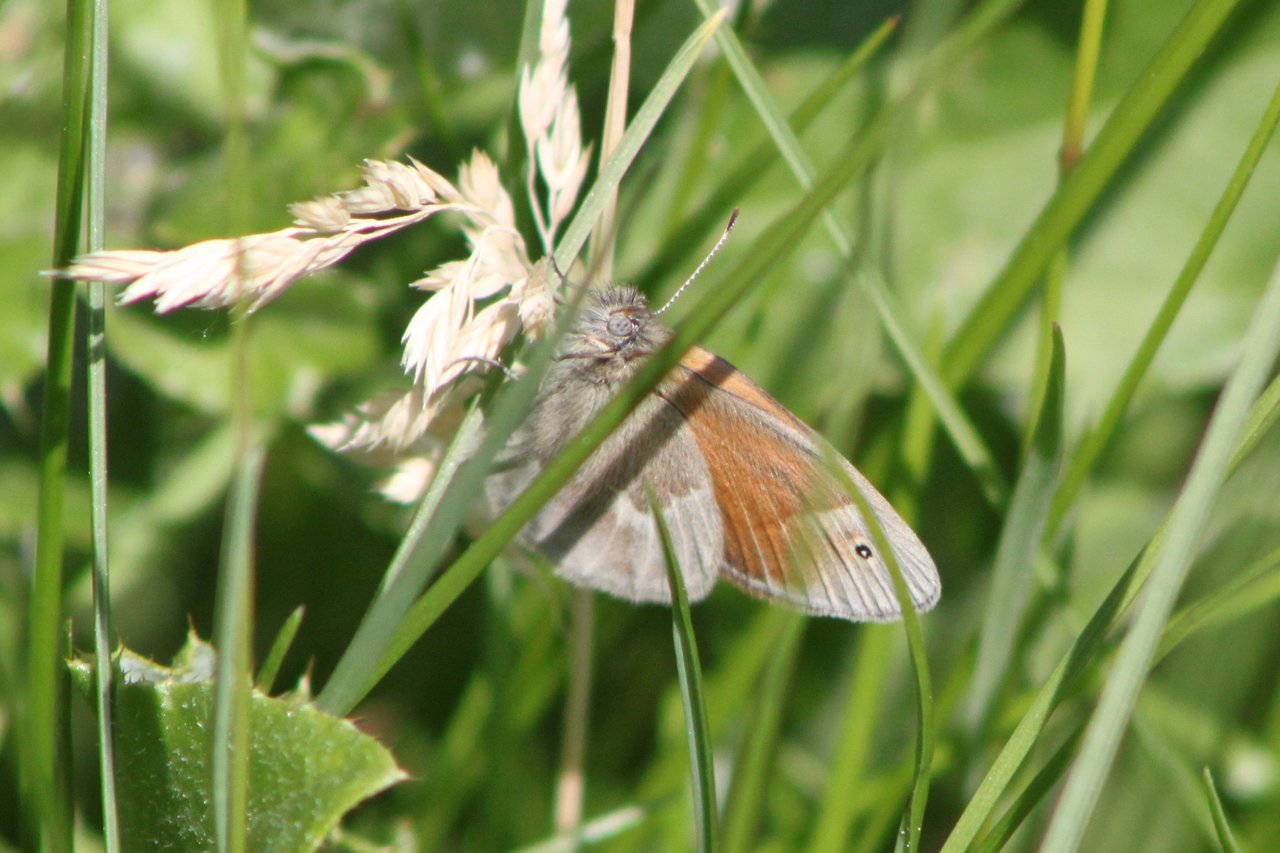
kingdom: Animalia
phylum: Arthropoda
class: Insecta
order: Lepidoptera
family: Nymphalidae
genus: Coenonympha
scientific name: Coenonympha tullia
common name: Large Heath
